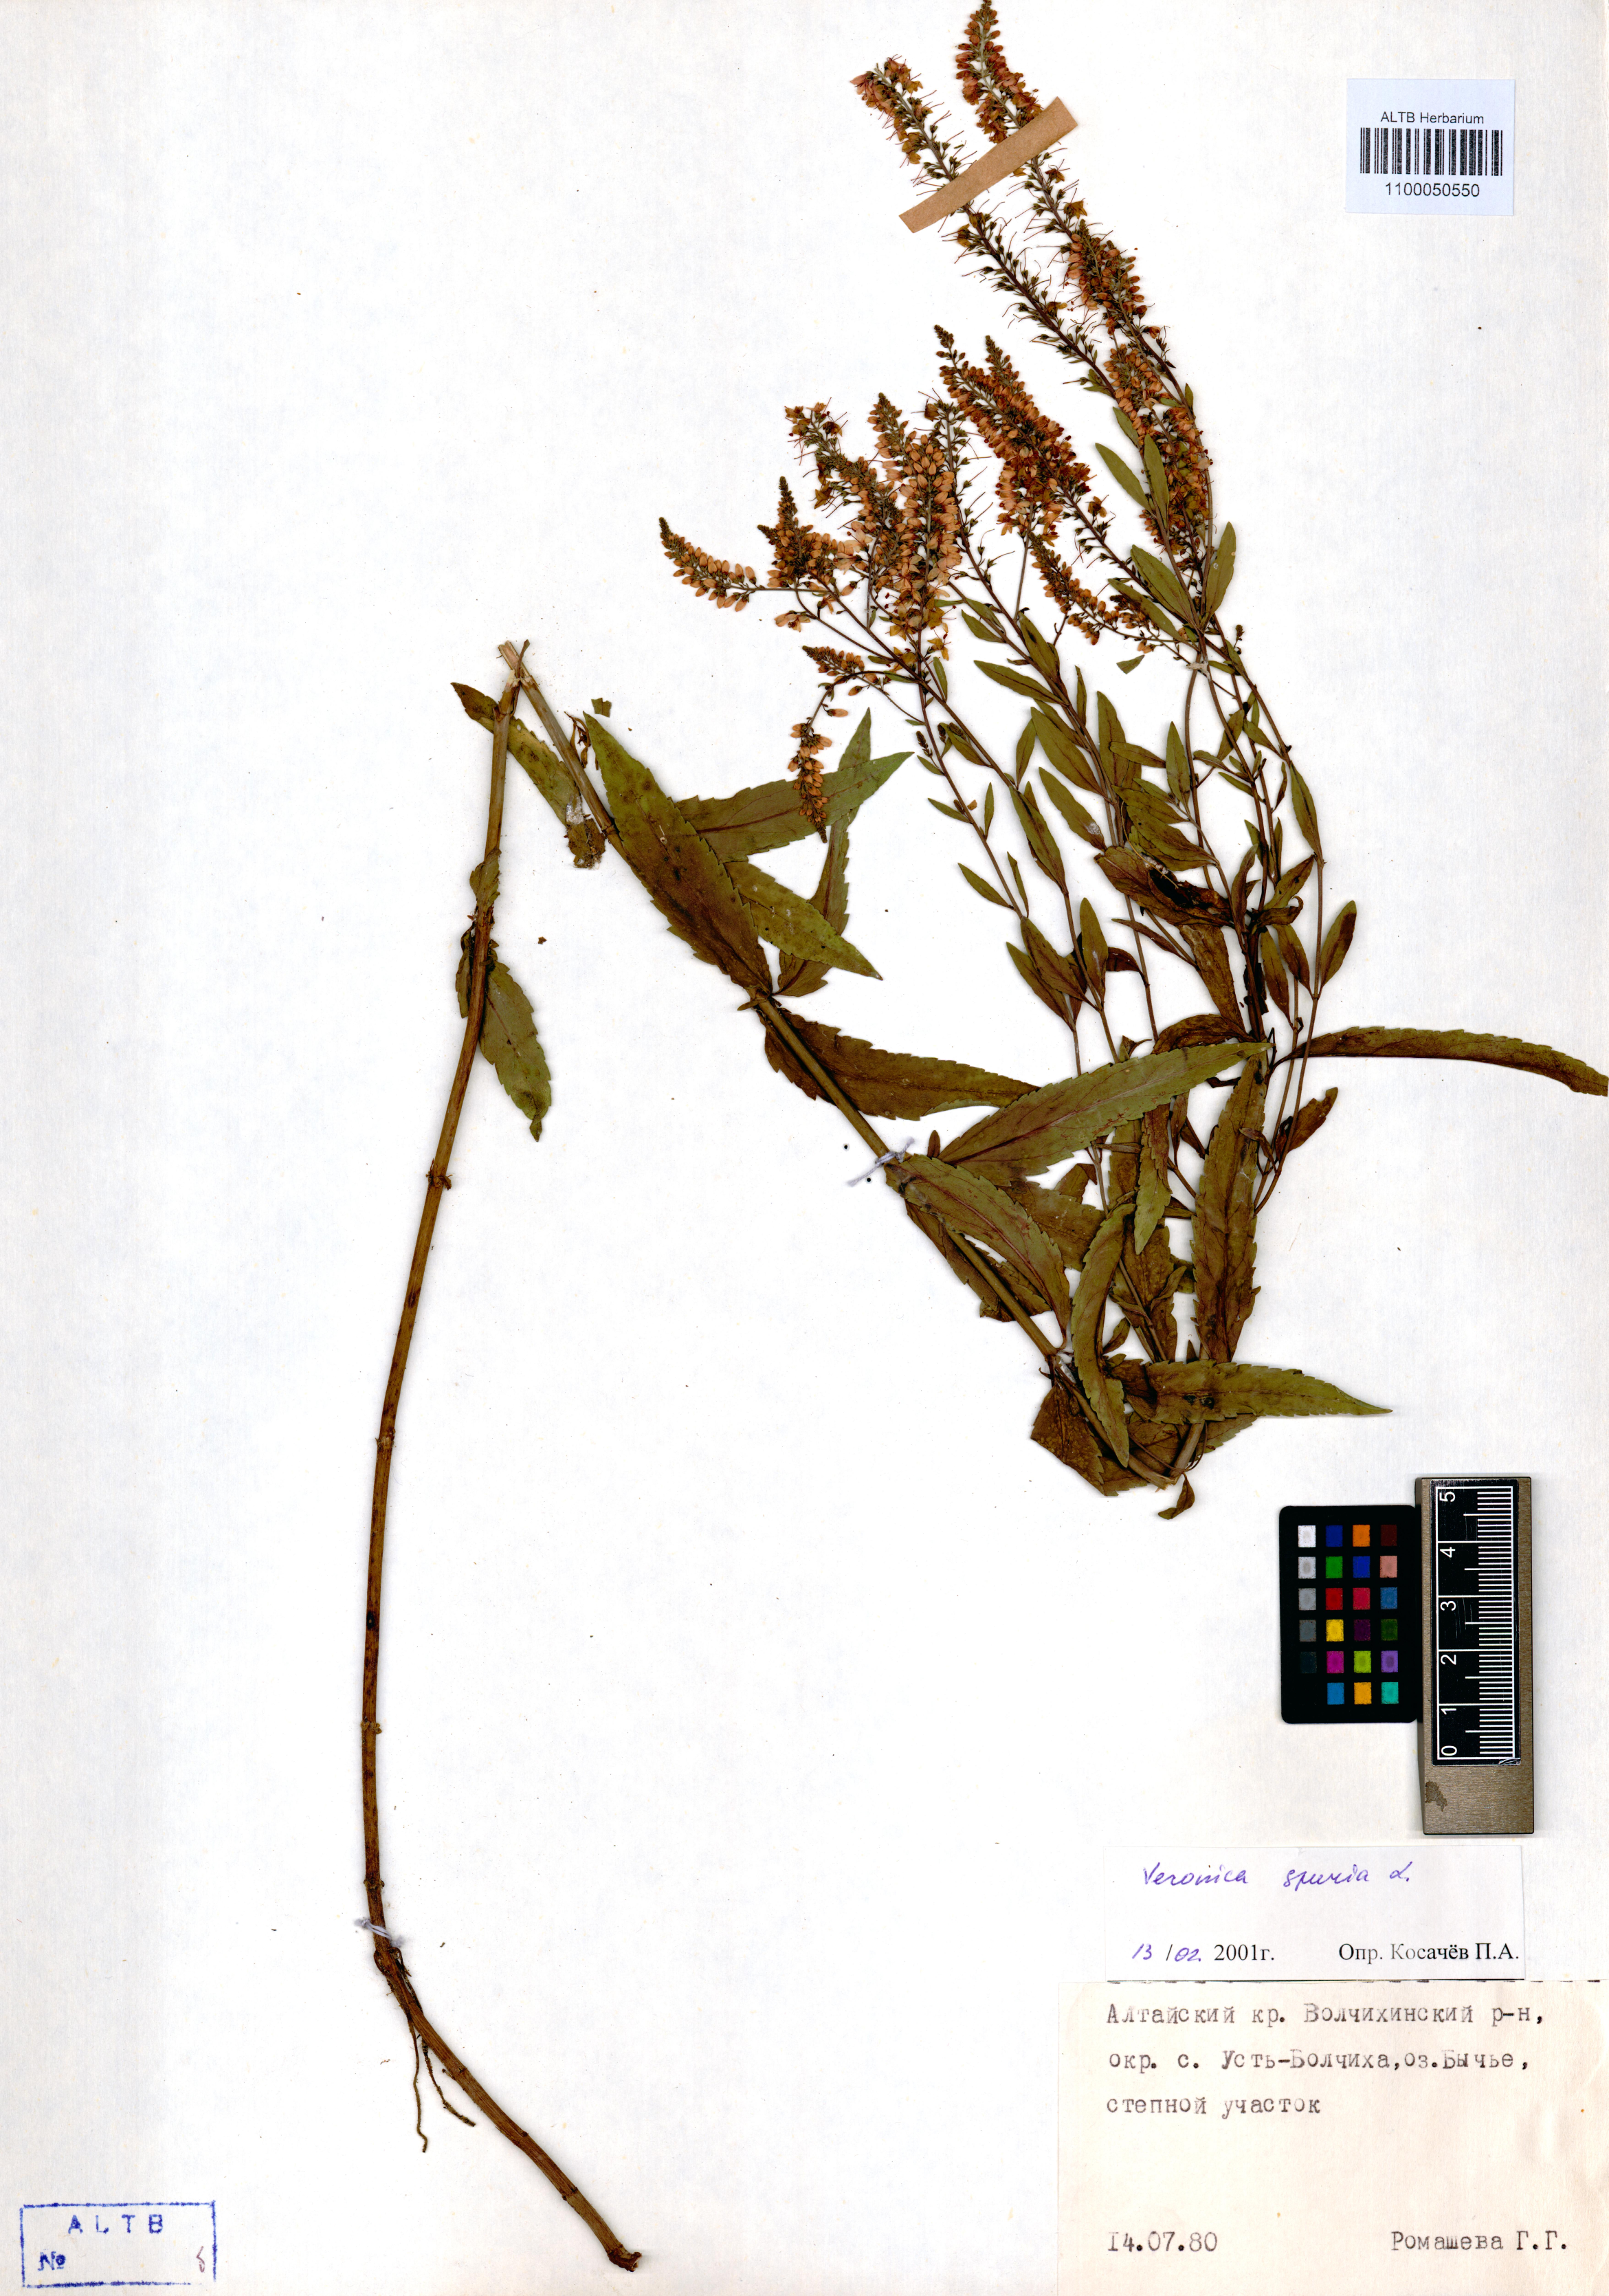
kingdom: Plantae
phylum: Tracheophyta
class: Magnoliopsida
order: Lamiales
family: Plantaginaceae
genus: Veronica
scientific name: Veronica spuria
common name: Bastard speedwell
